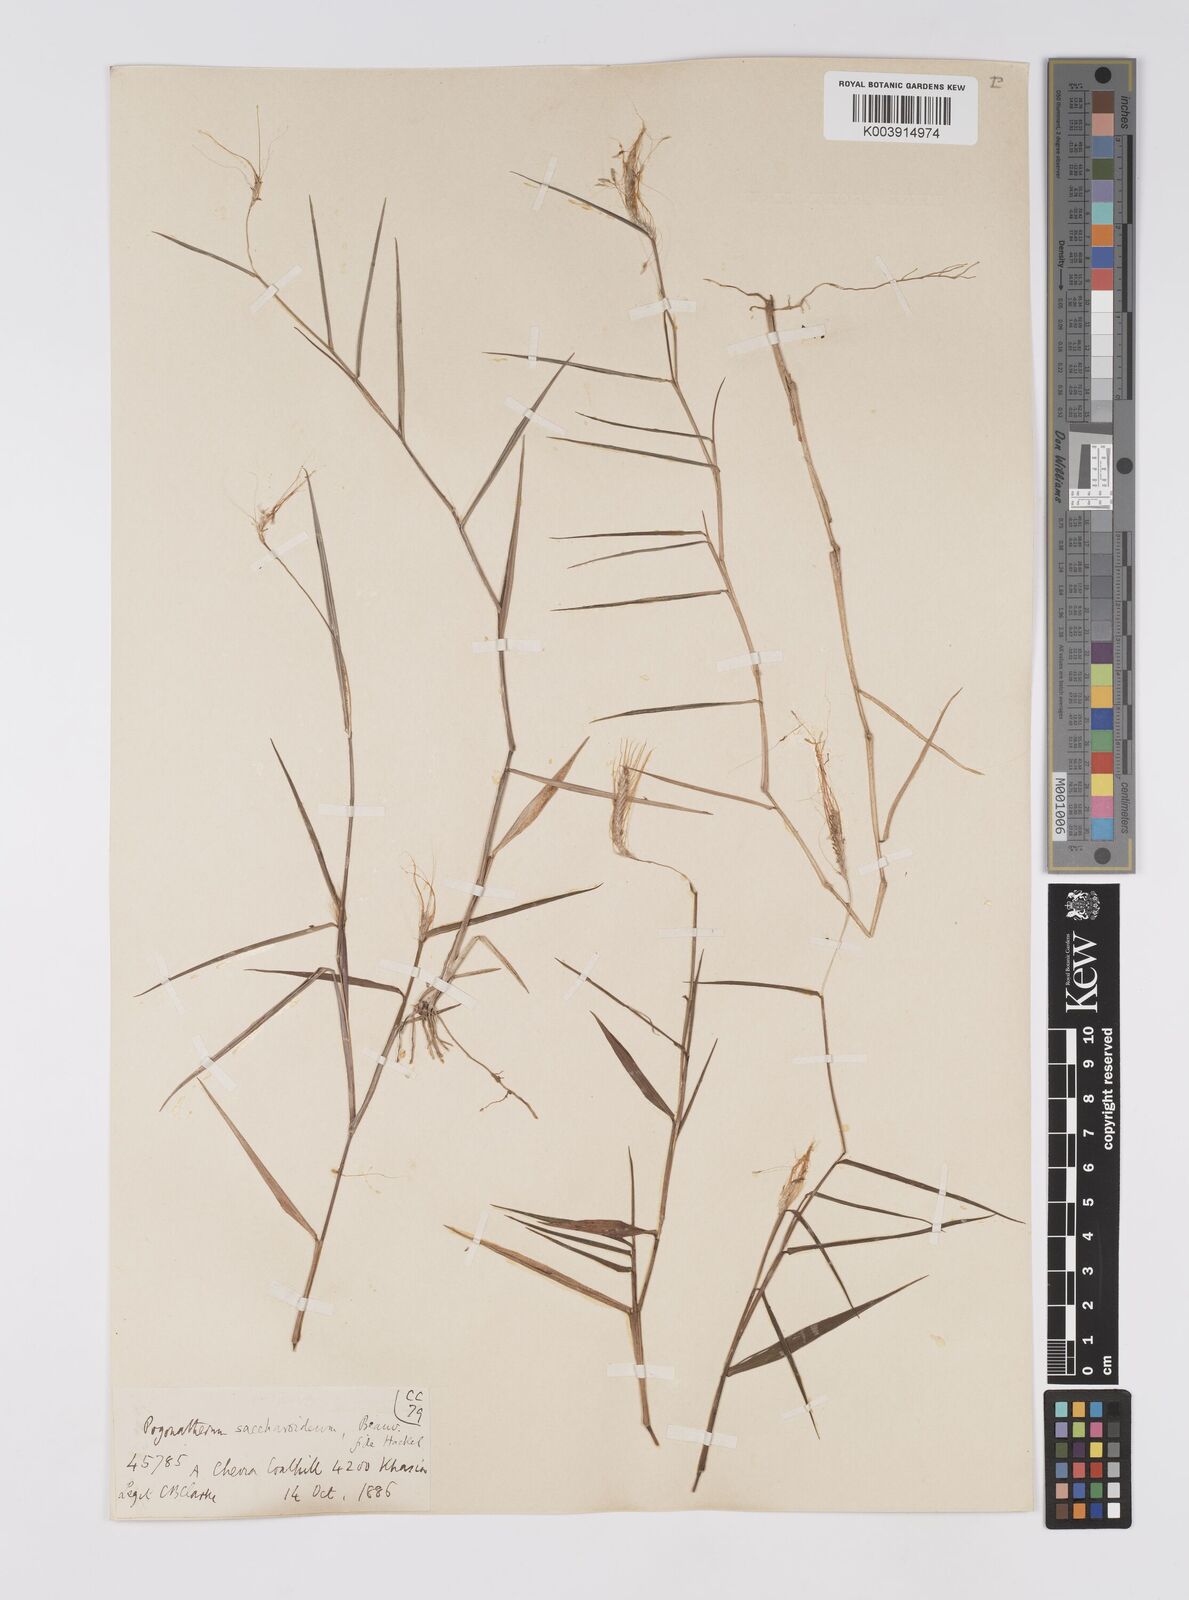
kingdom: Plantae
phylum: Tracheophyta
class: Liliopsida
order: Poales
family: Poaceae
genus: Pogonatherum
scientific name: Pogonatherum paniceum
